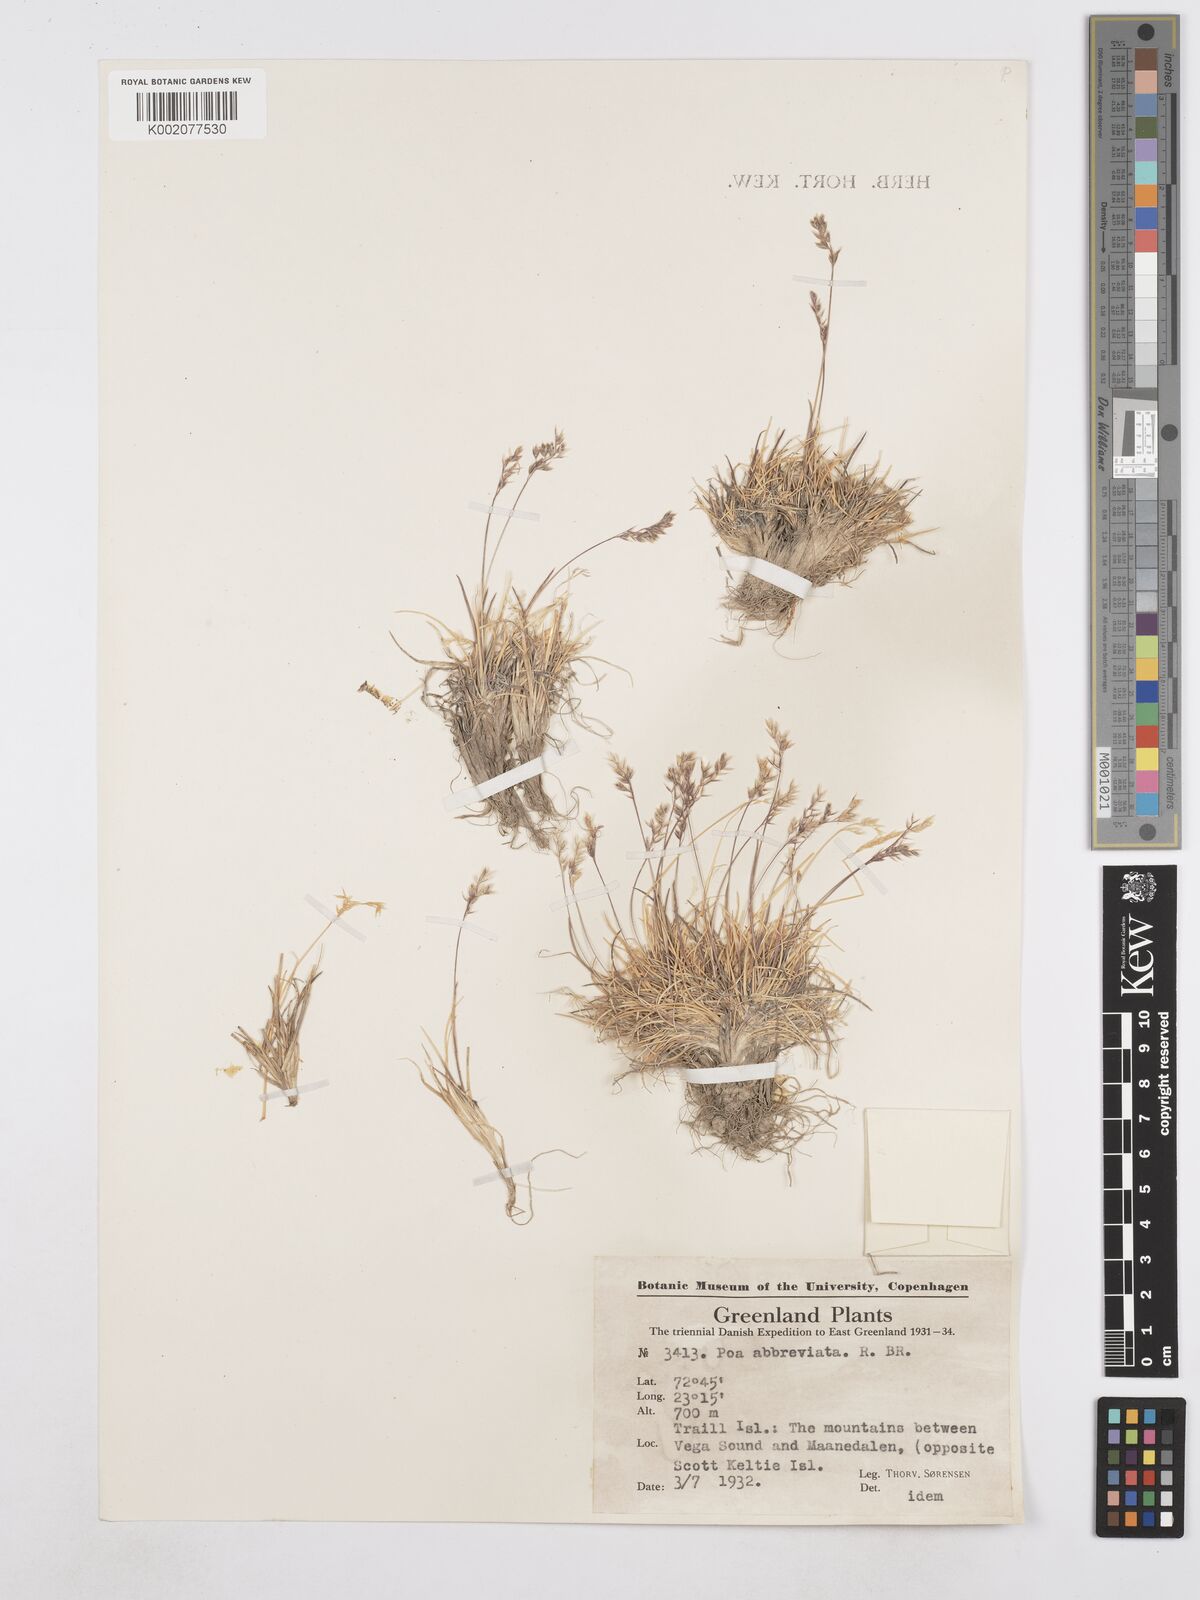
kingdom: Plantae
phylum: Tracheophyta
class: Liliopsida
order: Poales
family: Poaceae
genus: Poa
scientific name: Poa abbreviata
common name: Abbreviated bluegrass
